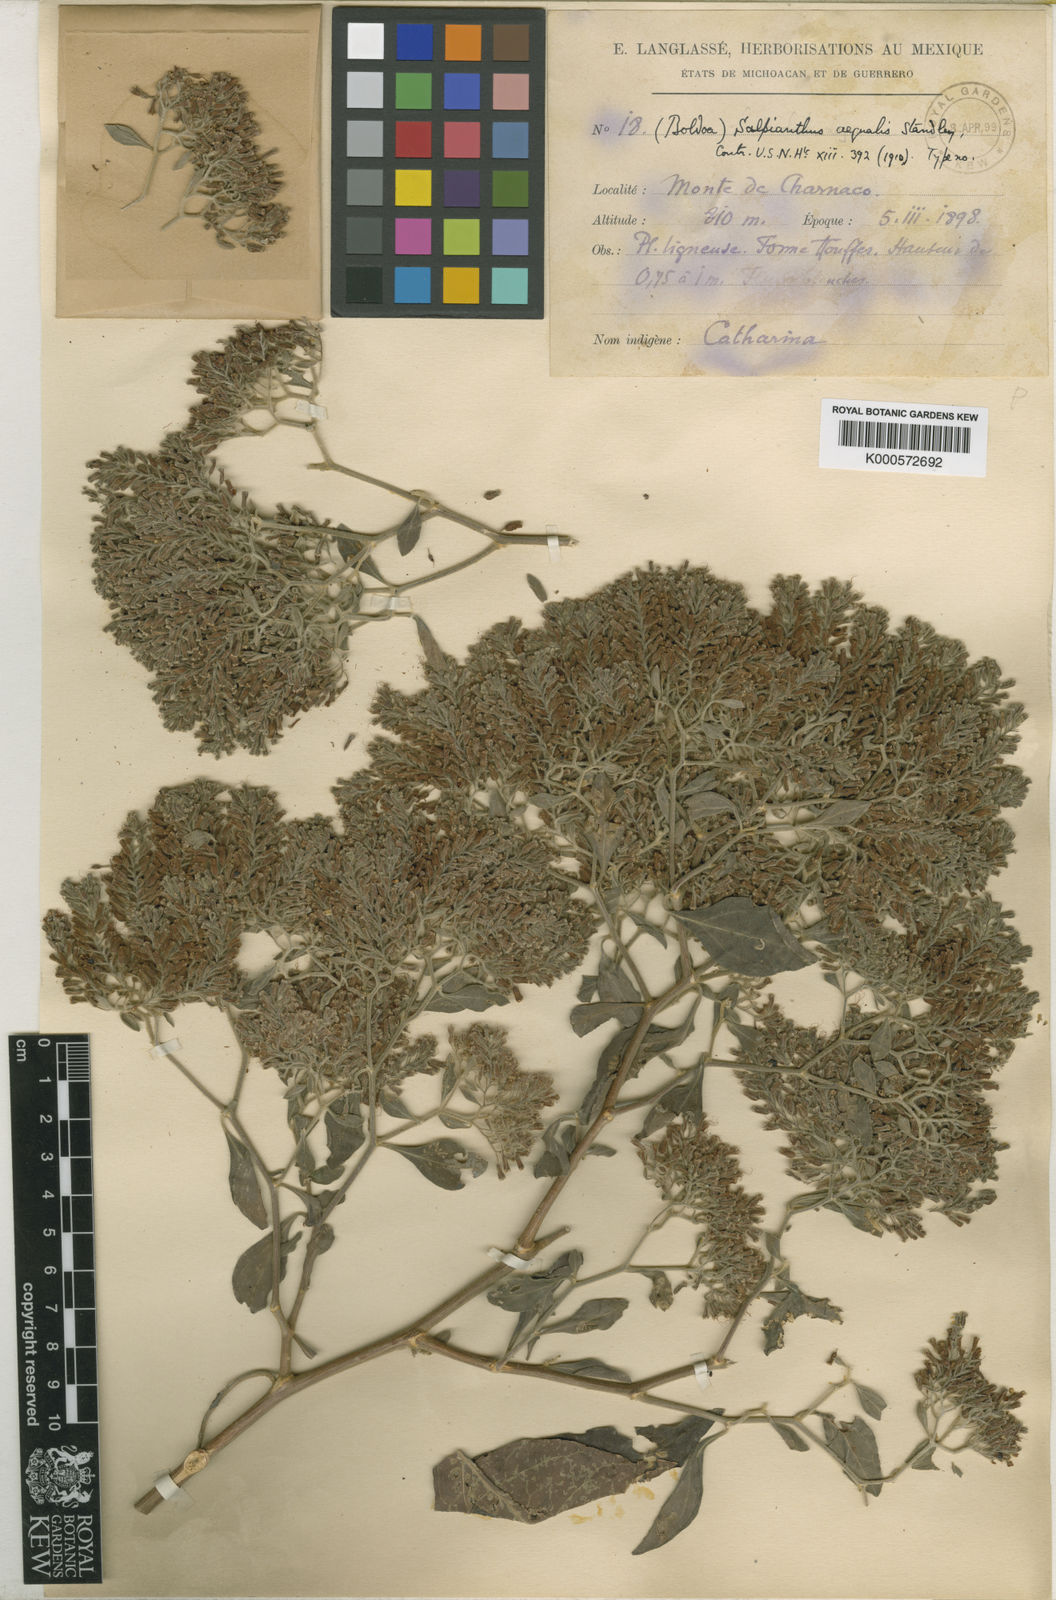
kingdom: Plantae
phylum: Tracheophyta
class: Magnoliopsida
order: Caryophyllales
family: Nyctaginaceae
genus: Salpianthus
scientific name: Salpianthus aequalis
